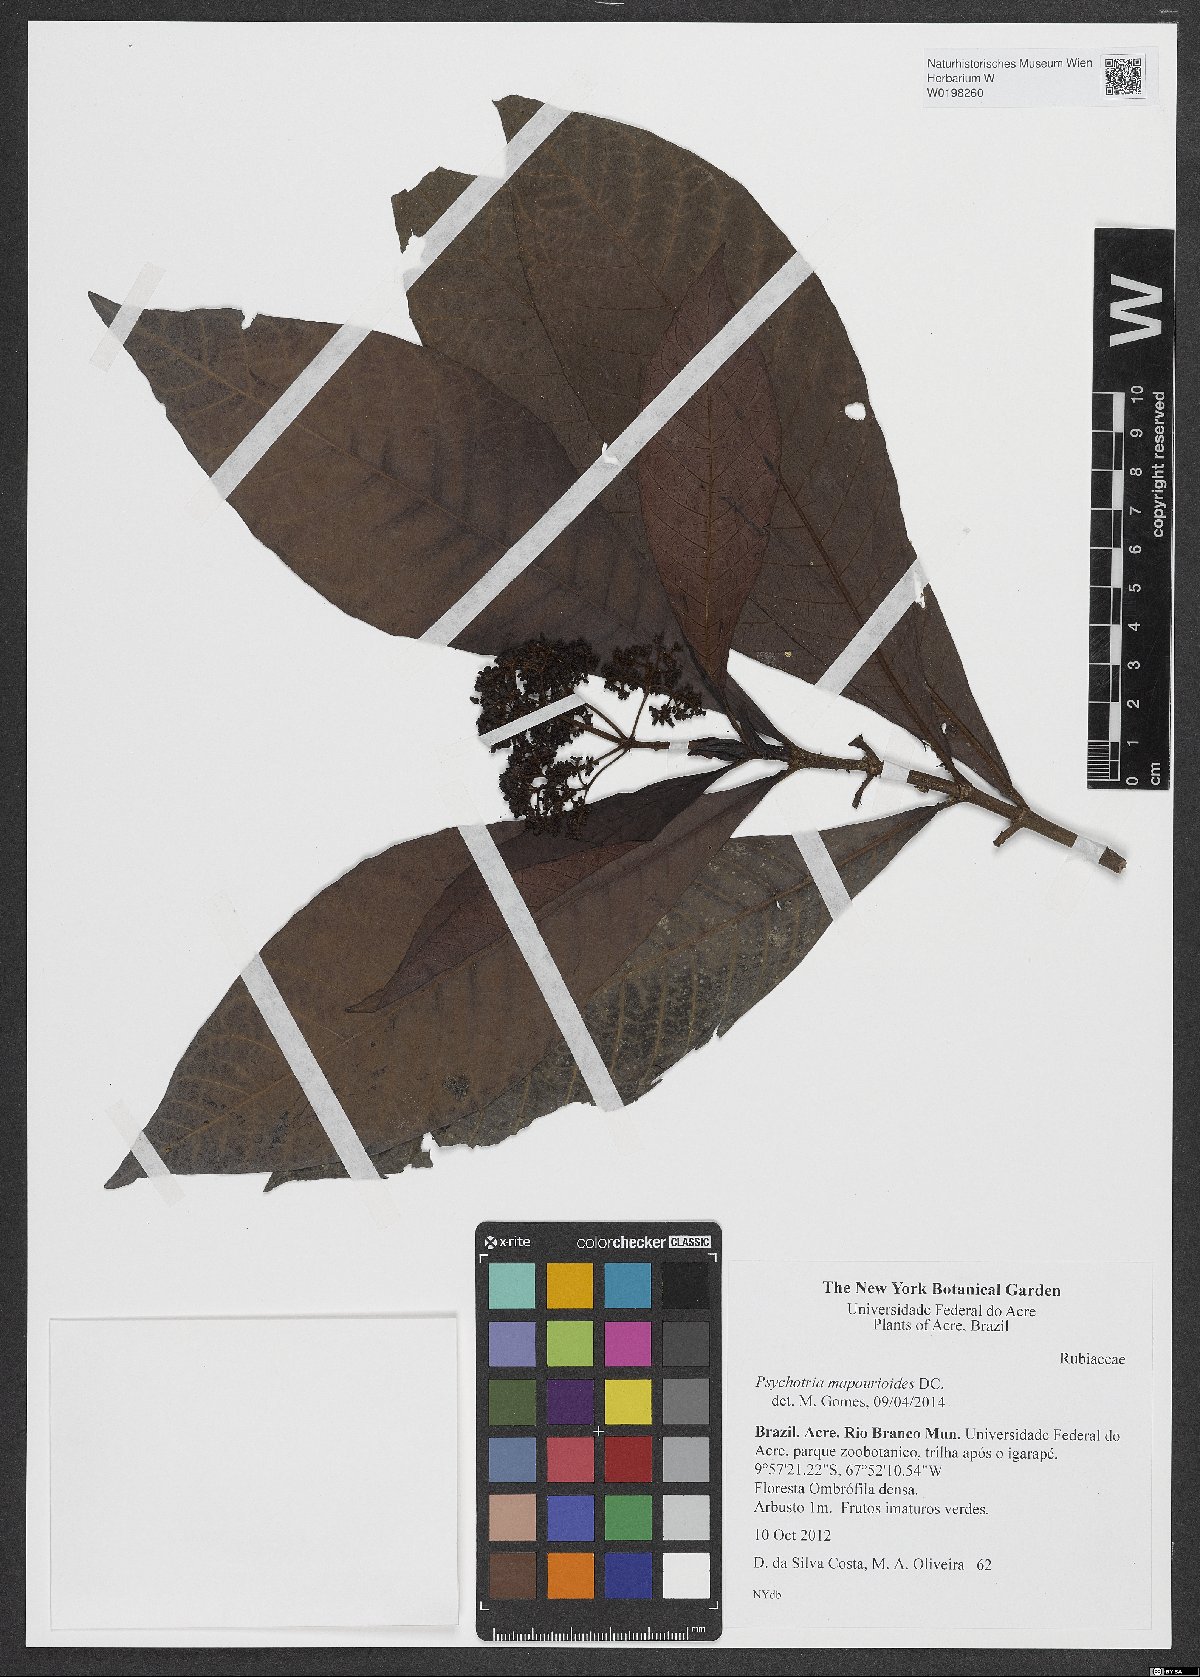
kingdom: Plantae
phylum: Tracheophyta
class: Magnoliopsida
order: Gentianales
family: Rubiaceae
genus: Psychotria
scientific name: Psychotria pedunculosa
